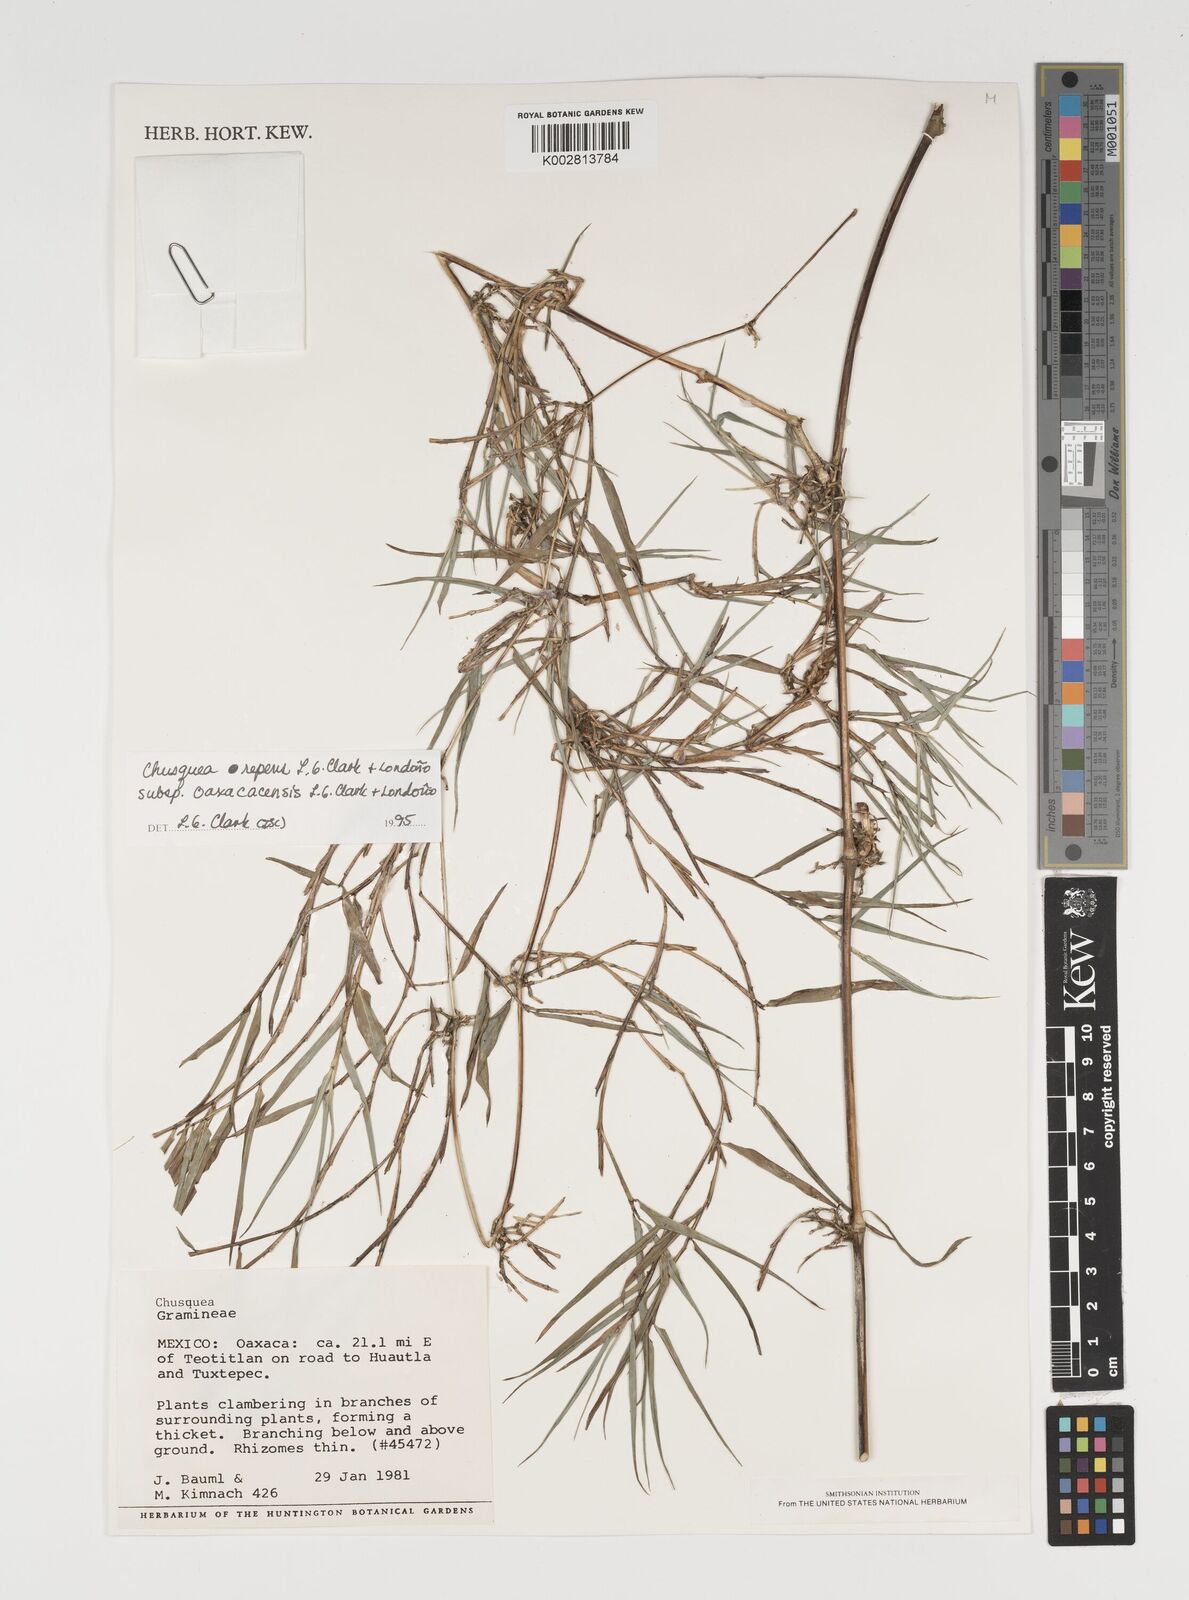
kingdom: Plantae
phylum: Tracheophyta
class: Liliopsida
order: Poales
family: Poaceae
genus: Chusquea
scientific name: Chusquea repens
